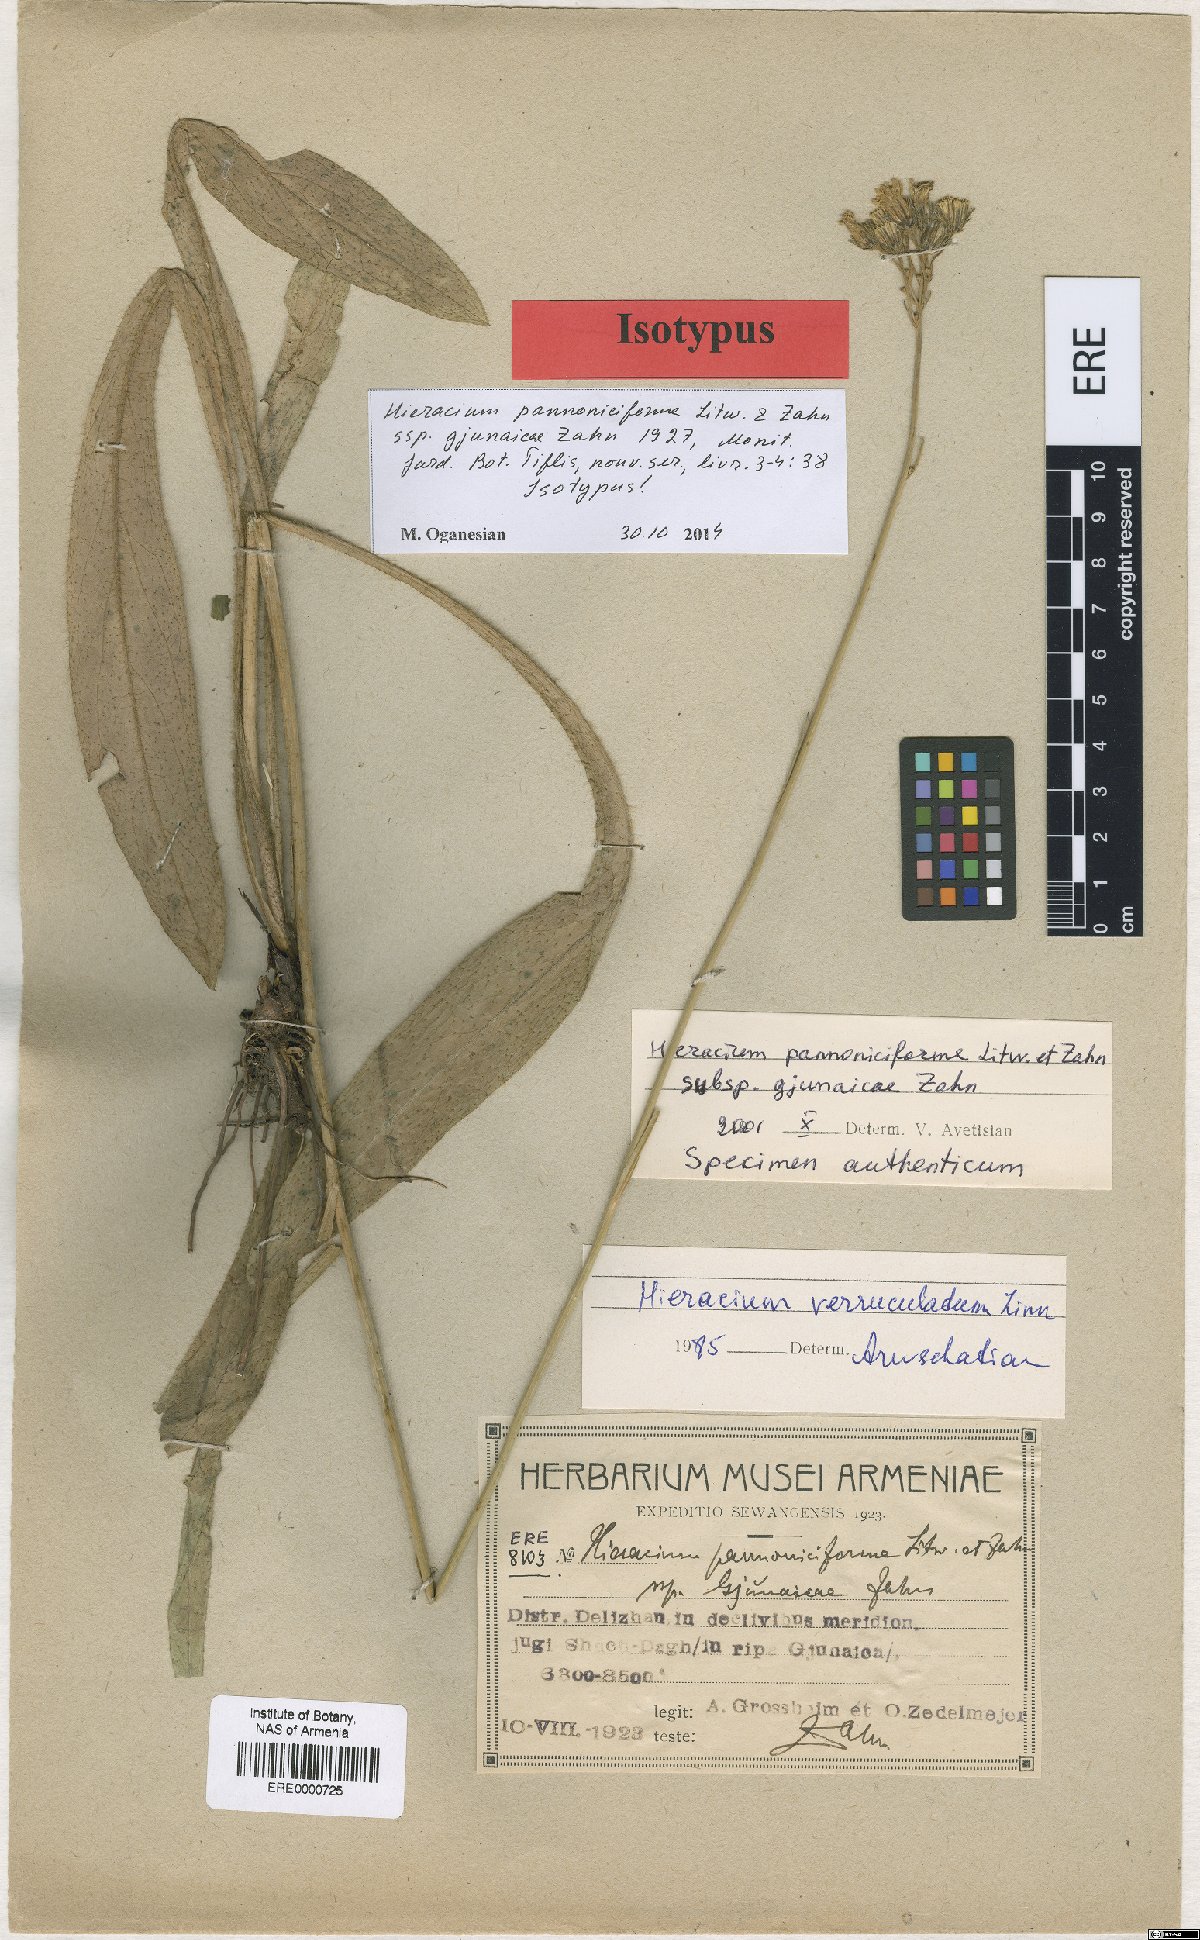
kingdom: Plantae
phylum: Tracheophyta
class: Magnoliopsida
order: Asterales
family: Asteraceae
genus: Pilosella
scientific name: Pilosella pannoniciformis
